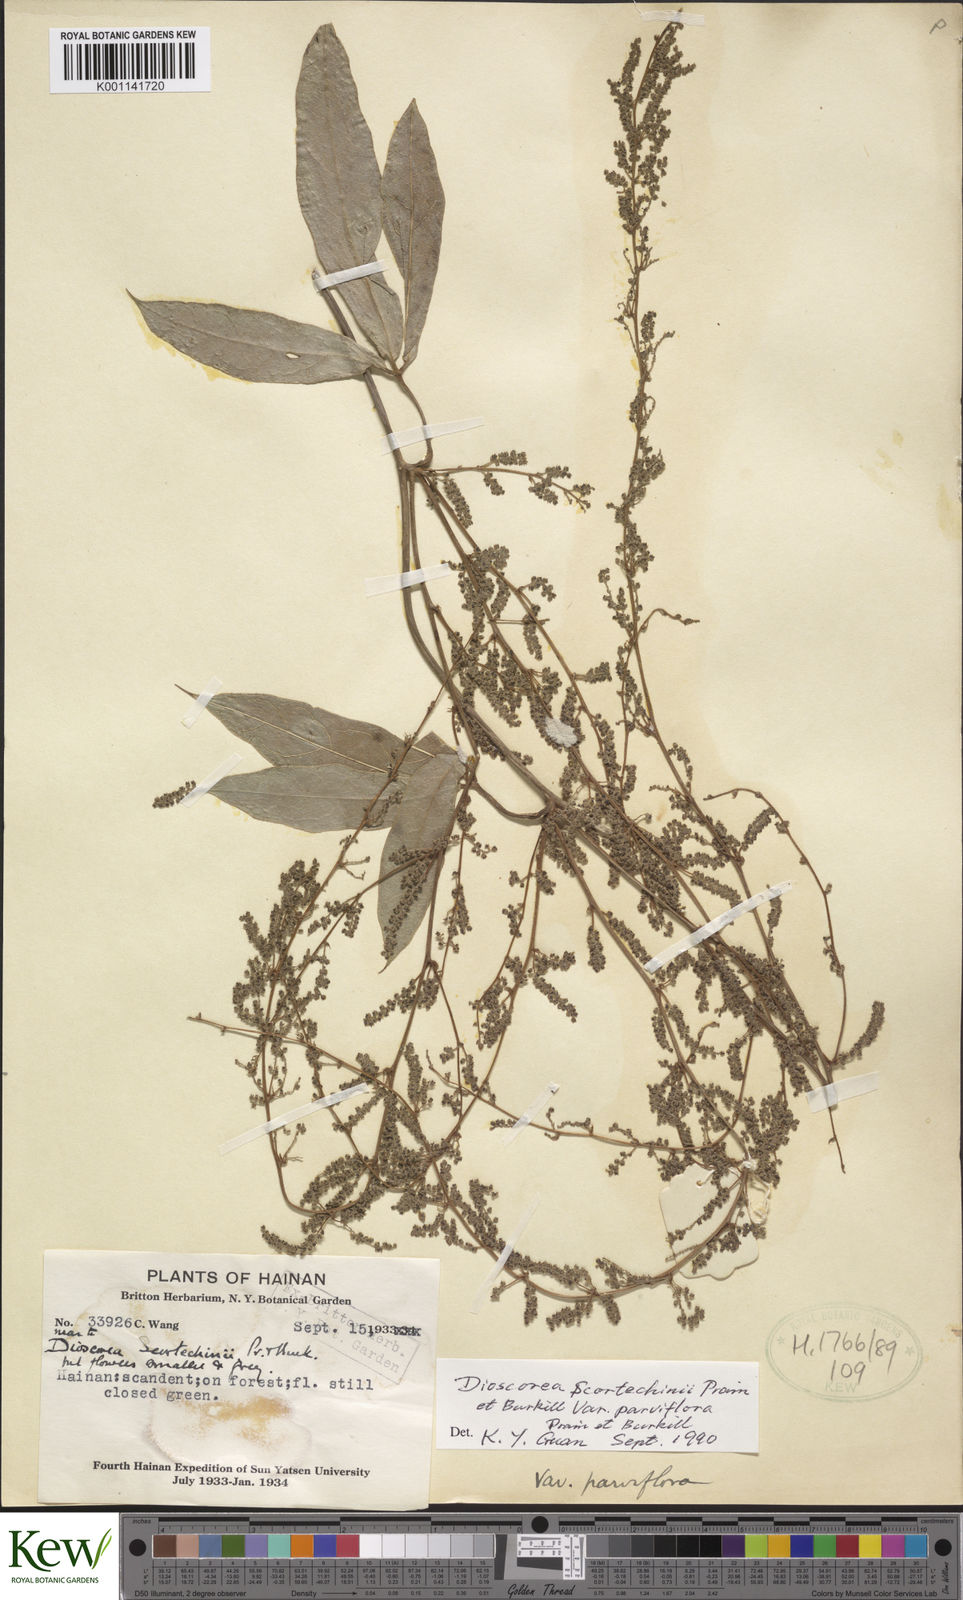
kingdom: Plantae
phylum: Tracheophyta
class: Liliopsida
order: Dioscoreales
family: Dioscoreaceae
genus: Dioscorea
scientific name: Dioscorea scortechinii
